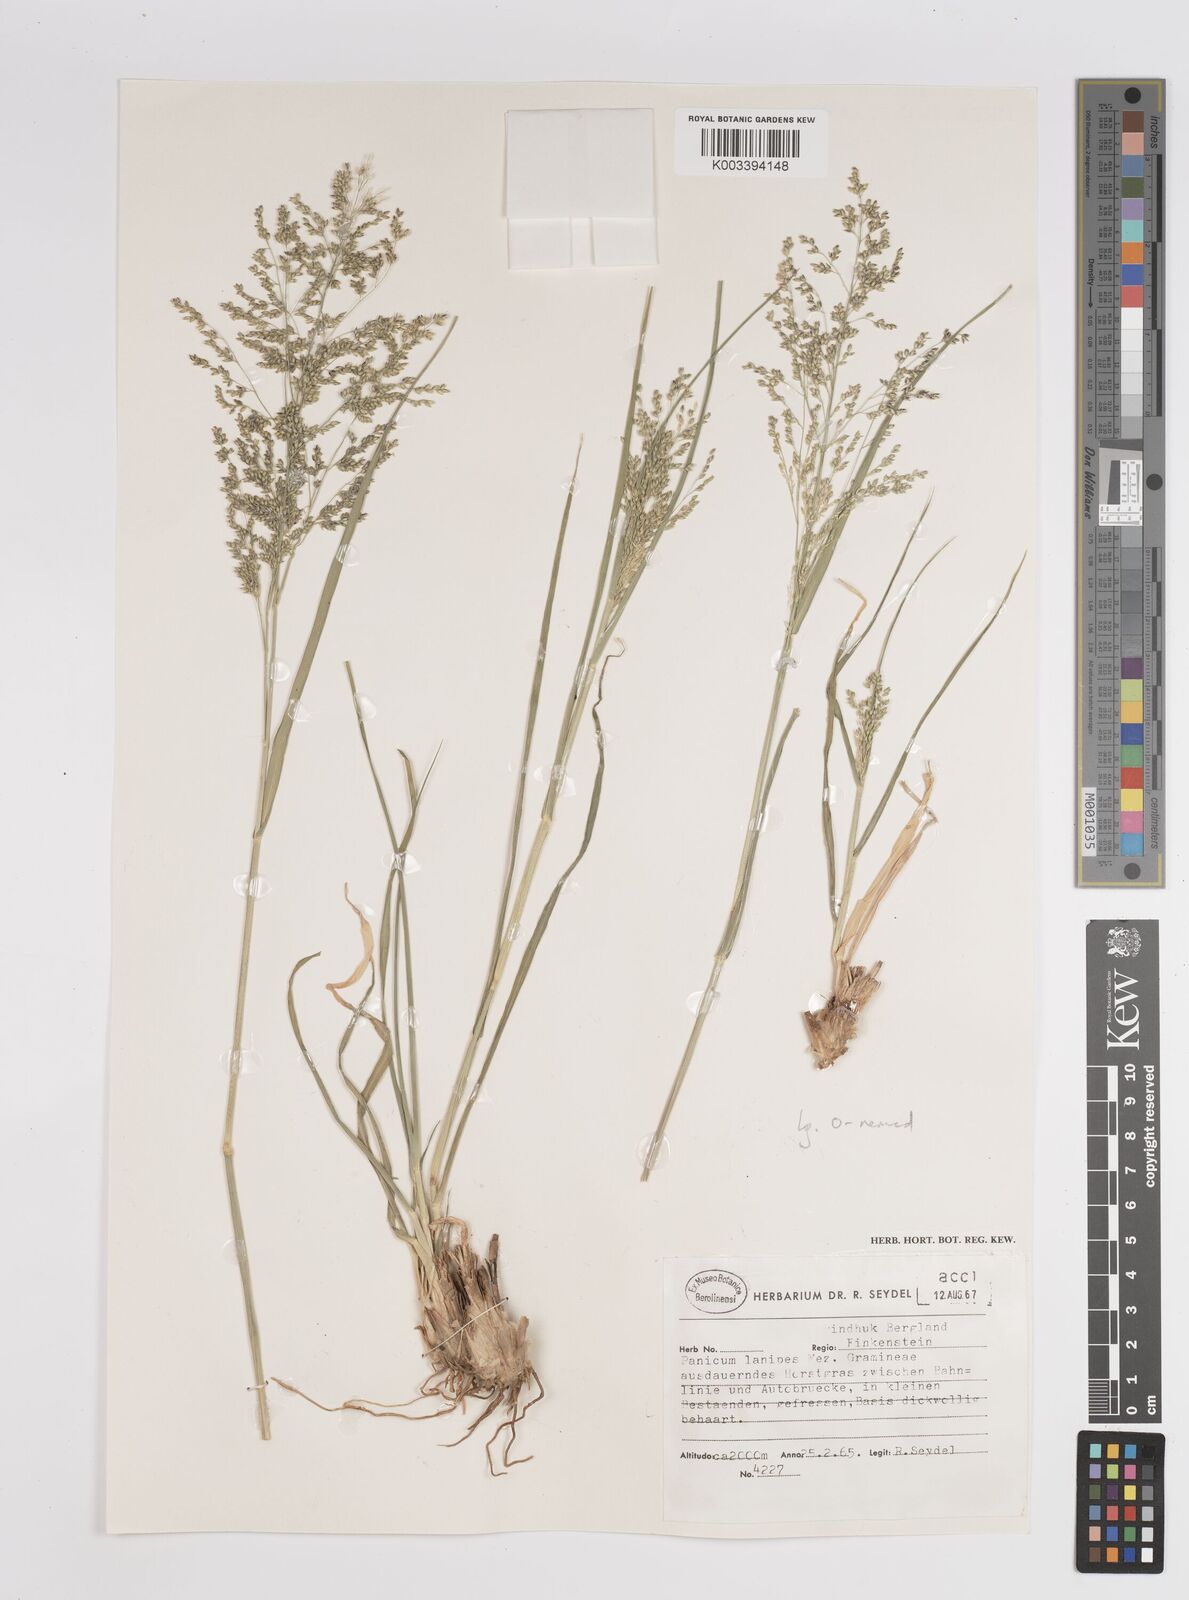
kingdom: Plantae
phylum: Tracheophyta
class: Liliopsida
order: Poales
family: Poaceae
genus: Panicum
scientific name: Panicum lanipes
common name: Wolvoet panicum
